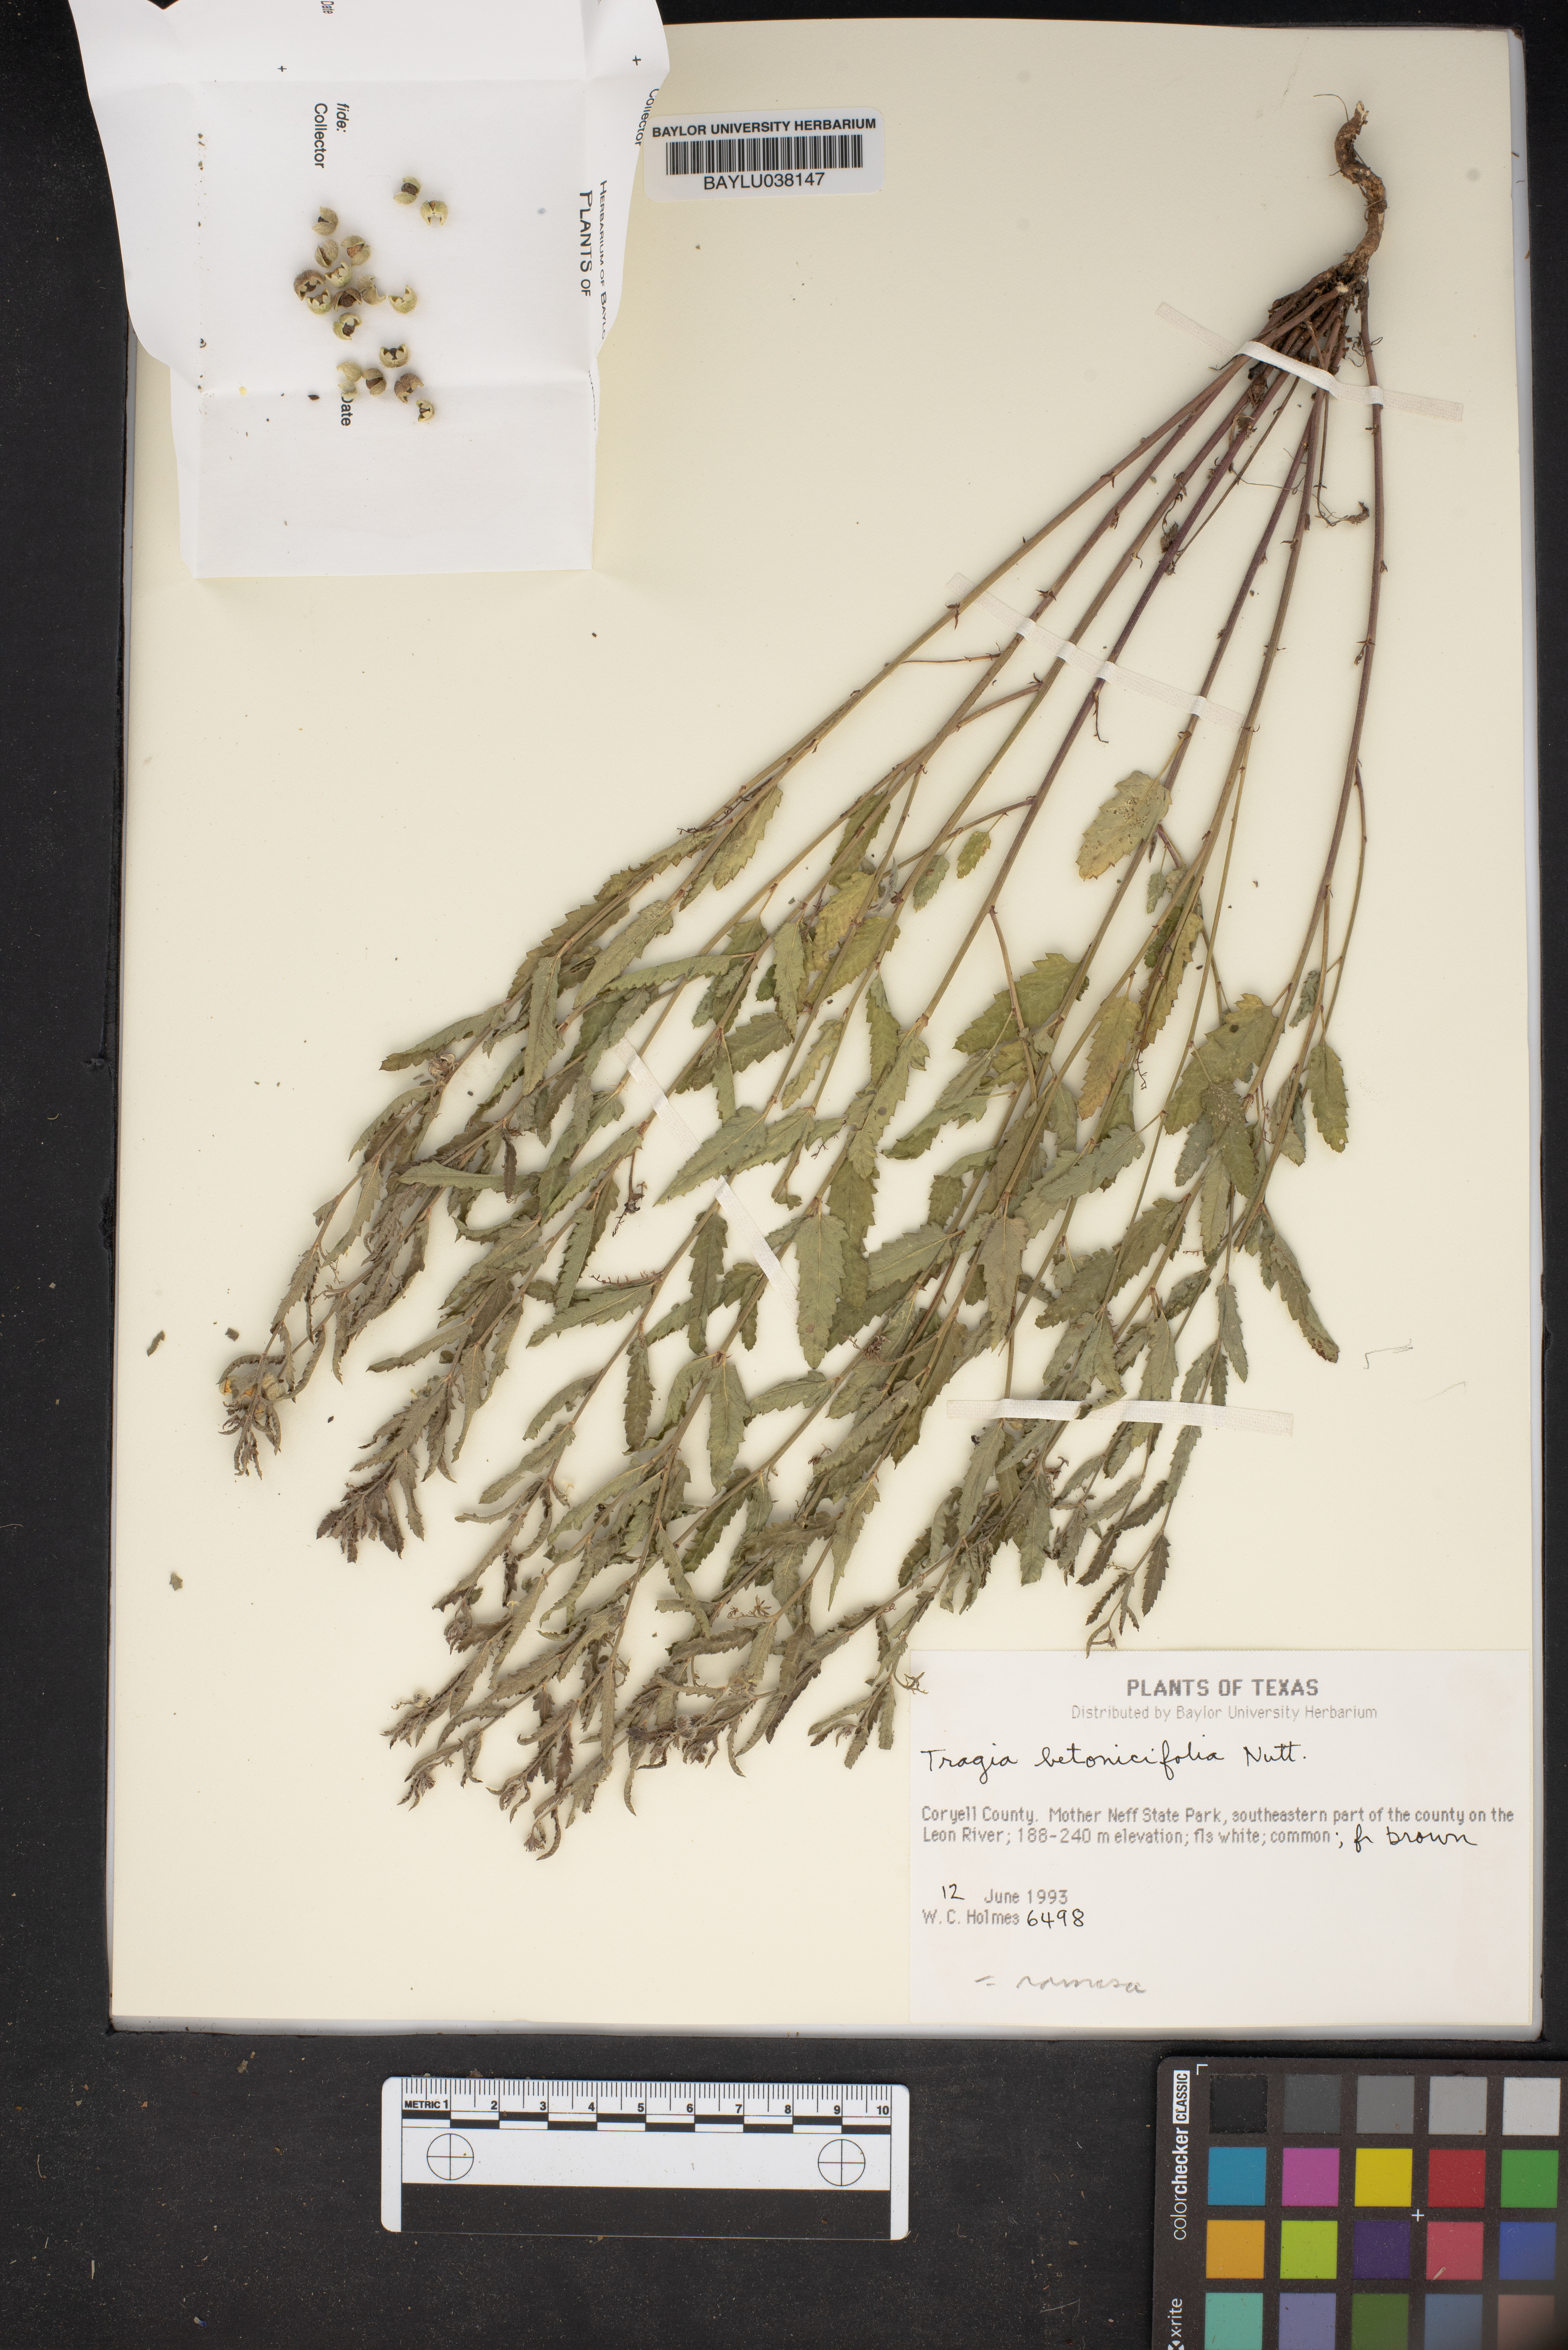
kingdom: Plantae
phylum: Tracheophyta
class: Magnoliopsida
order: Malpighiales
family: Euphorbiaceae
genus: Tragia
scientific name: Tragia betonicifolia
